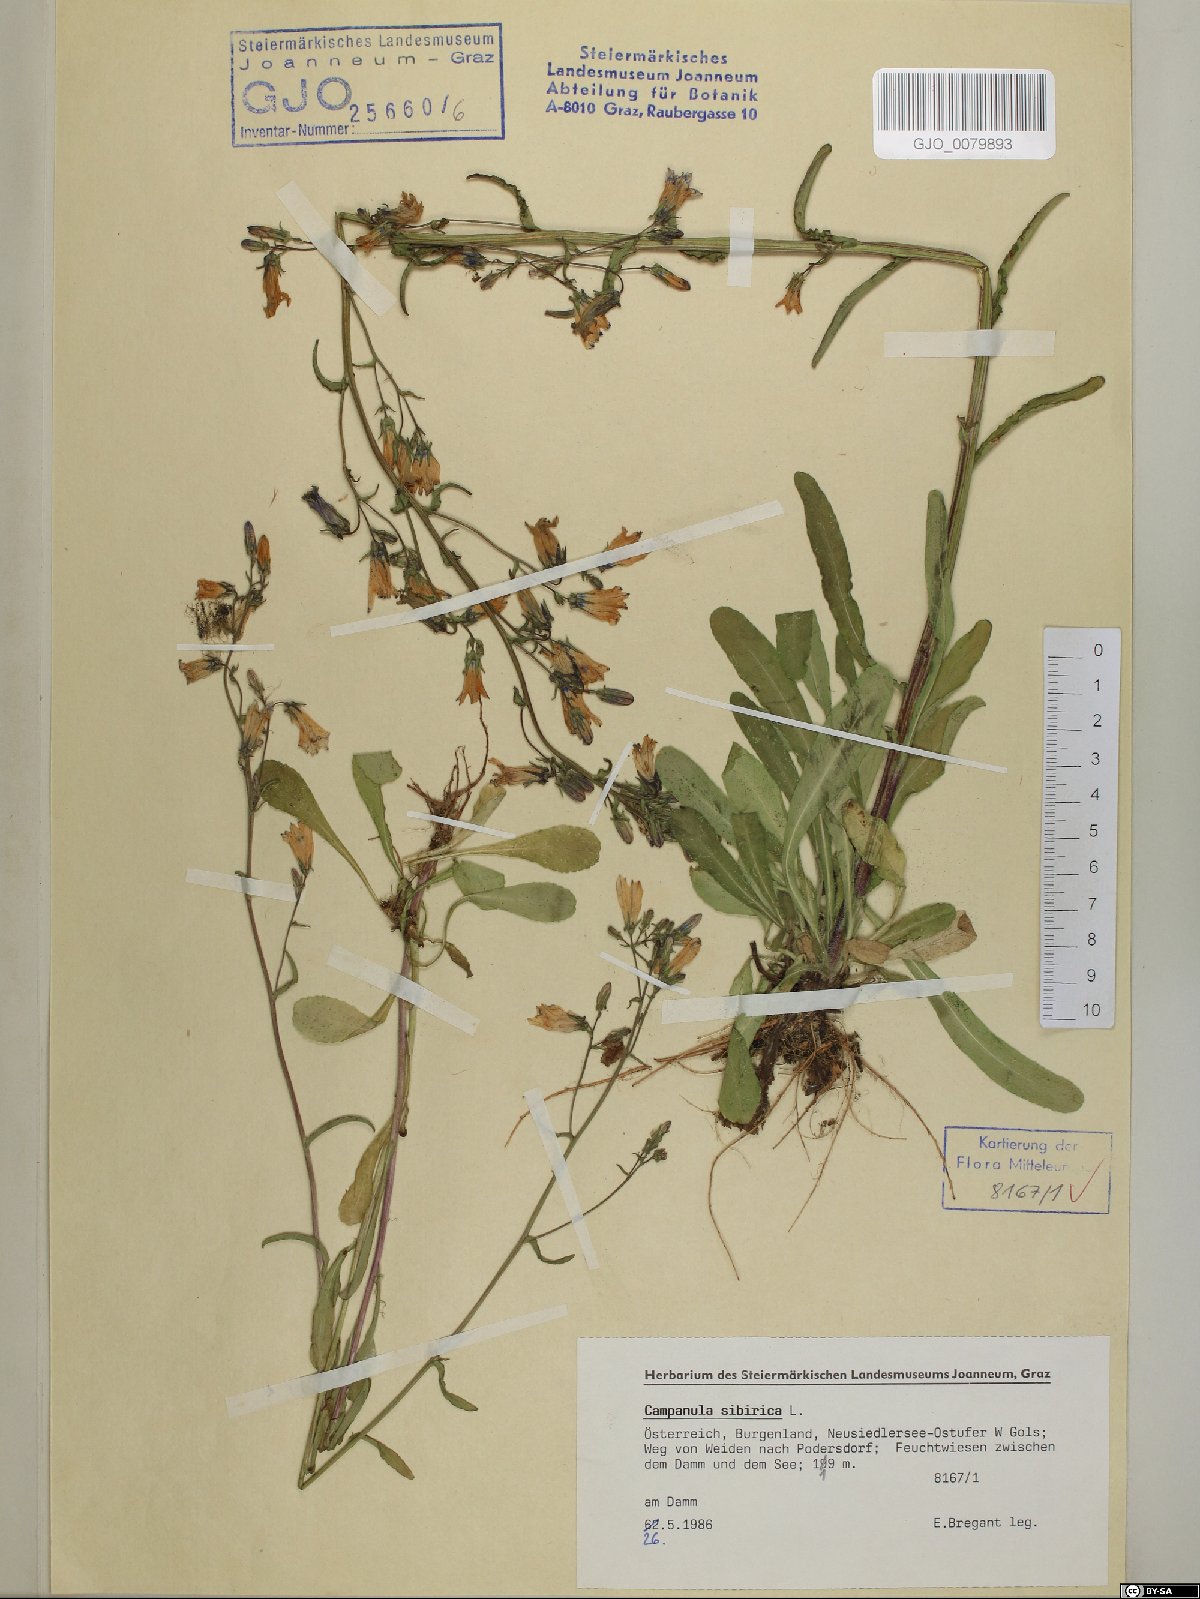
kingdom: Plantae
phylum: Tracheophyta
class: Magnoliopsida
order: Asterales
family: Campanulaceae
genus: Campanula
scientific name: Campanula sibirica
